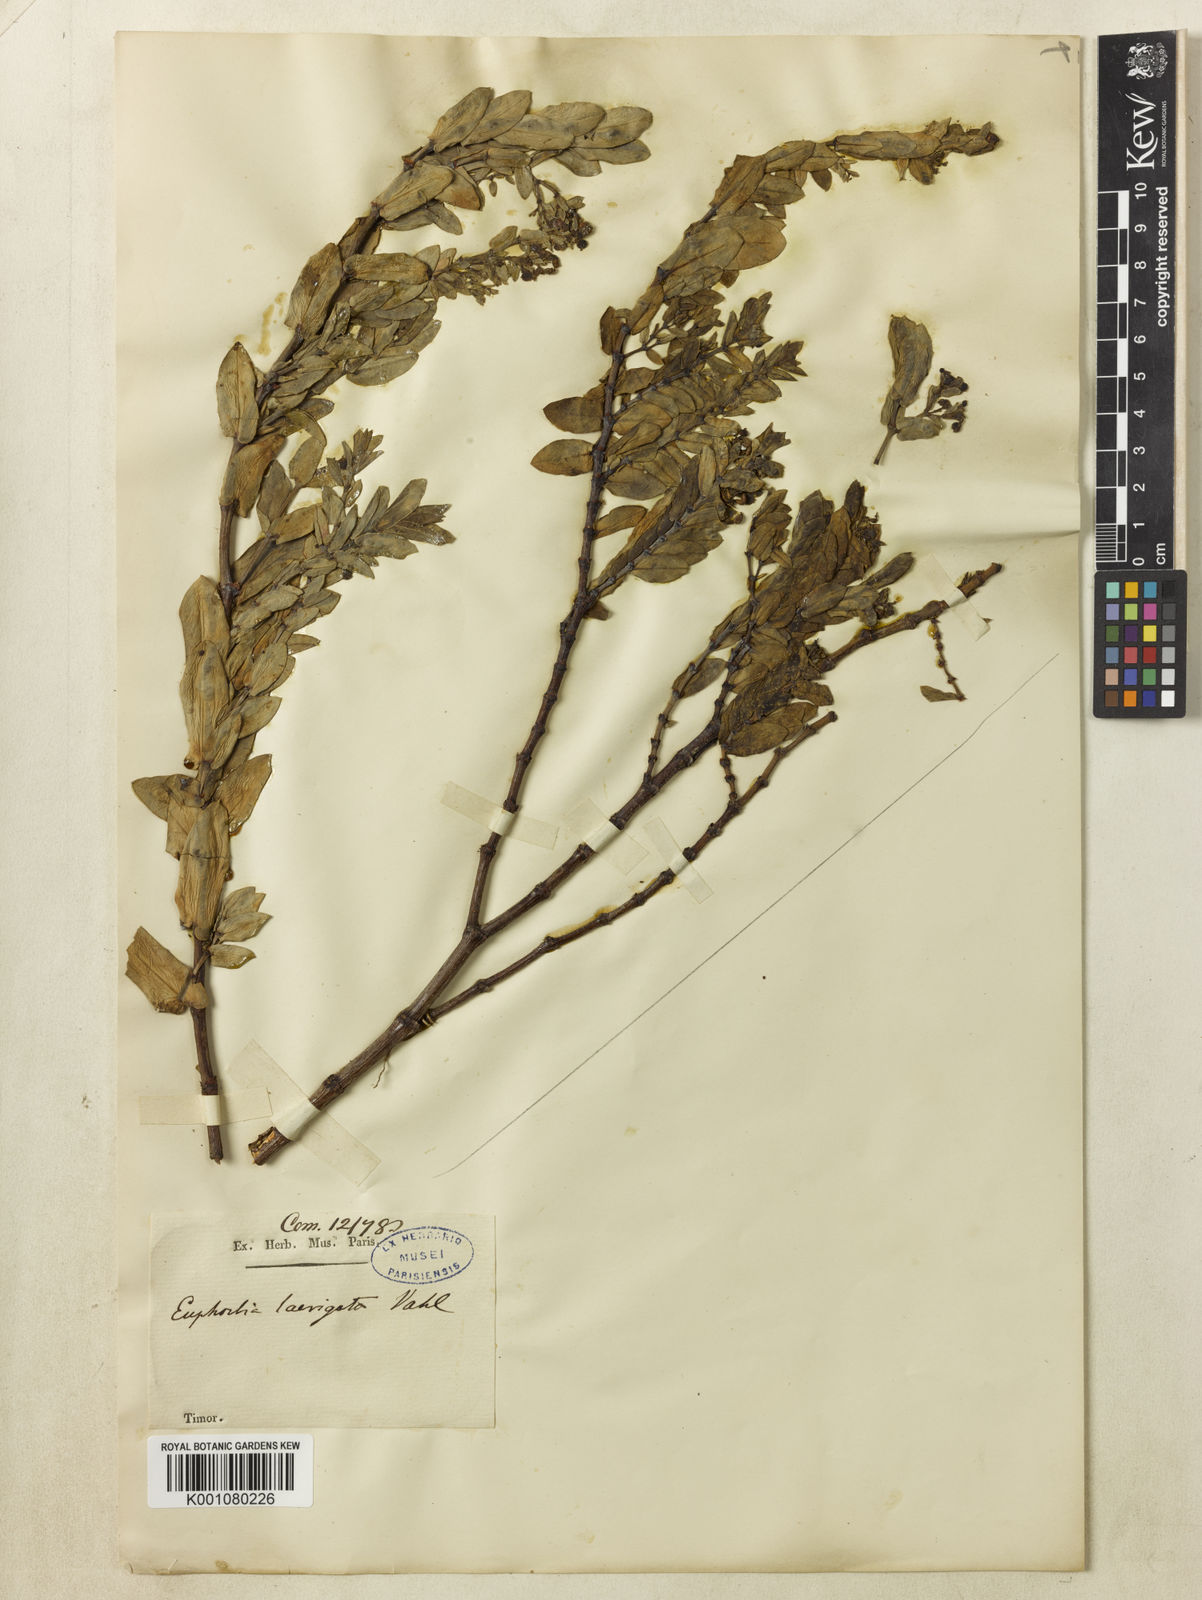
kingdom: Plantae
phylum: Tracheophyta
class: Magnoliopsida
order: Malpighiales
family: Euphorbiaceae
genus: Euphorbia
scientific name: Euphorbia pallens
